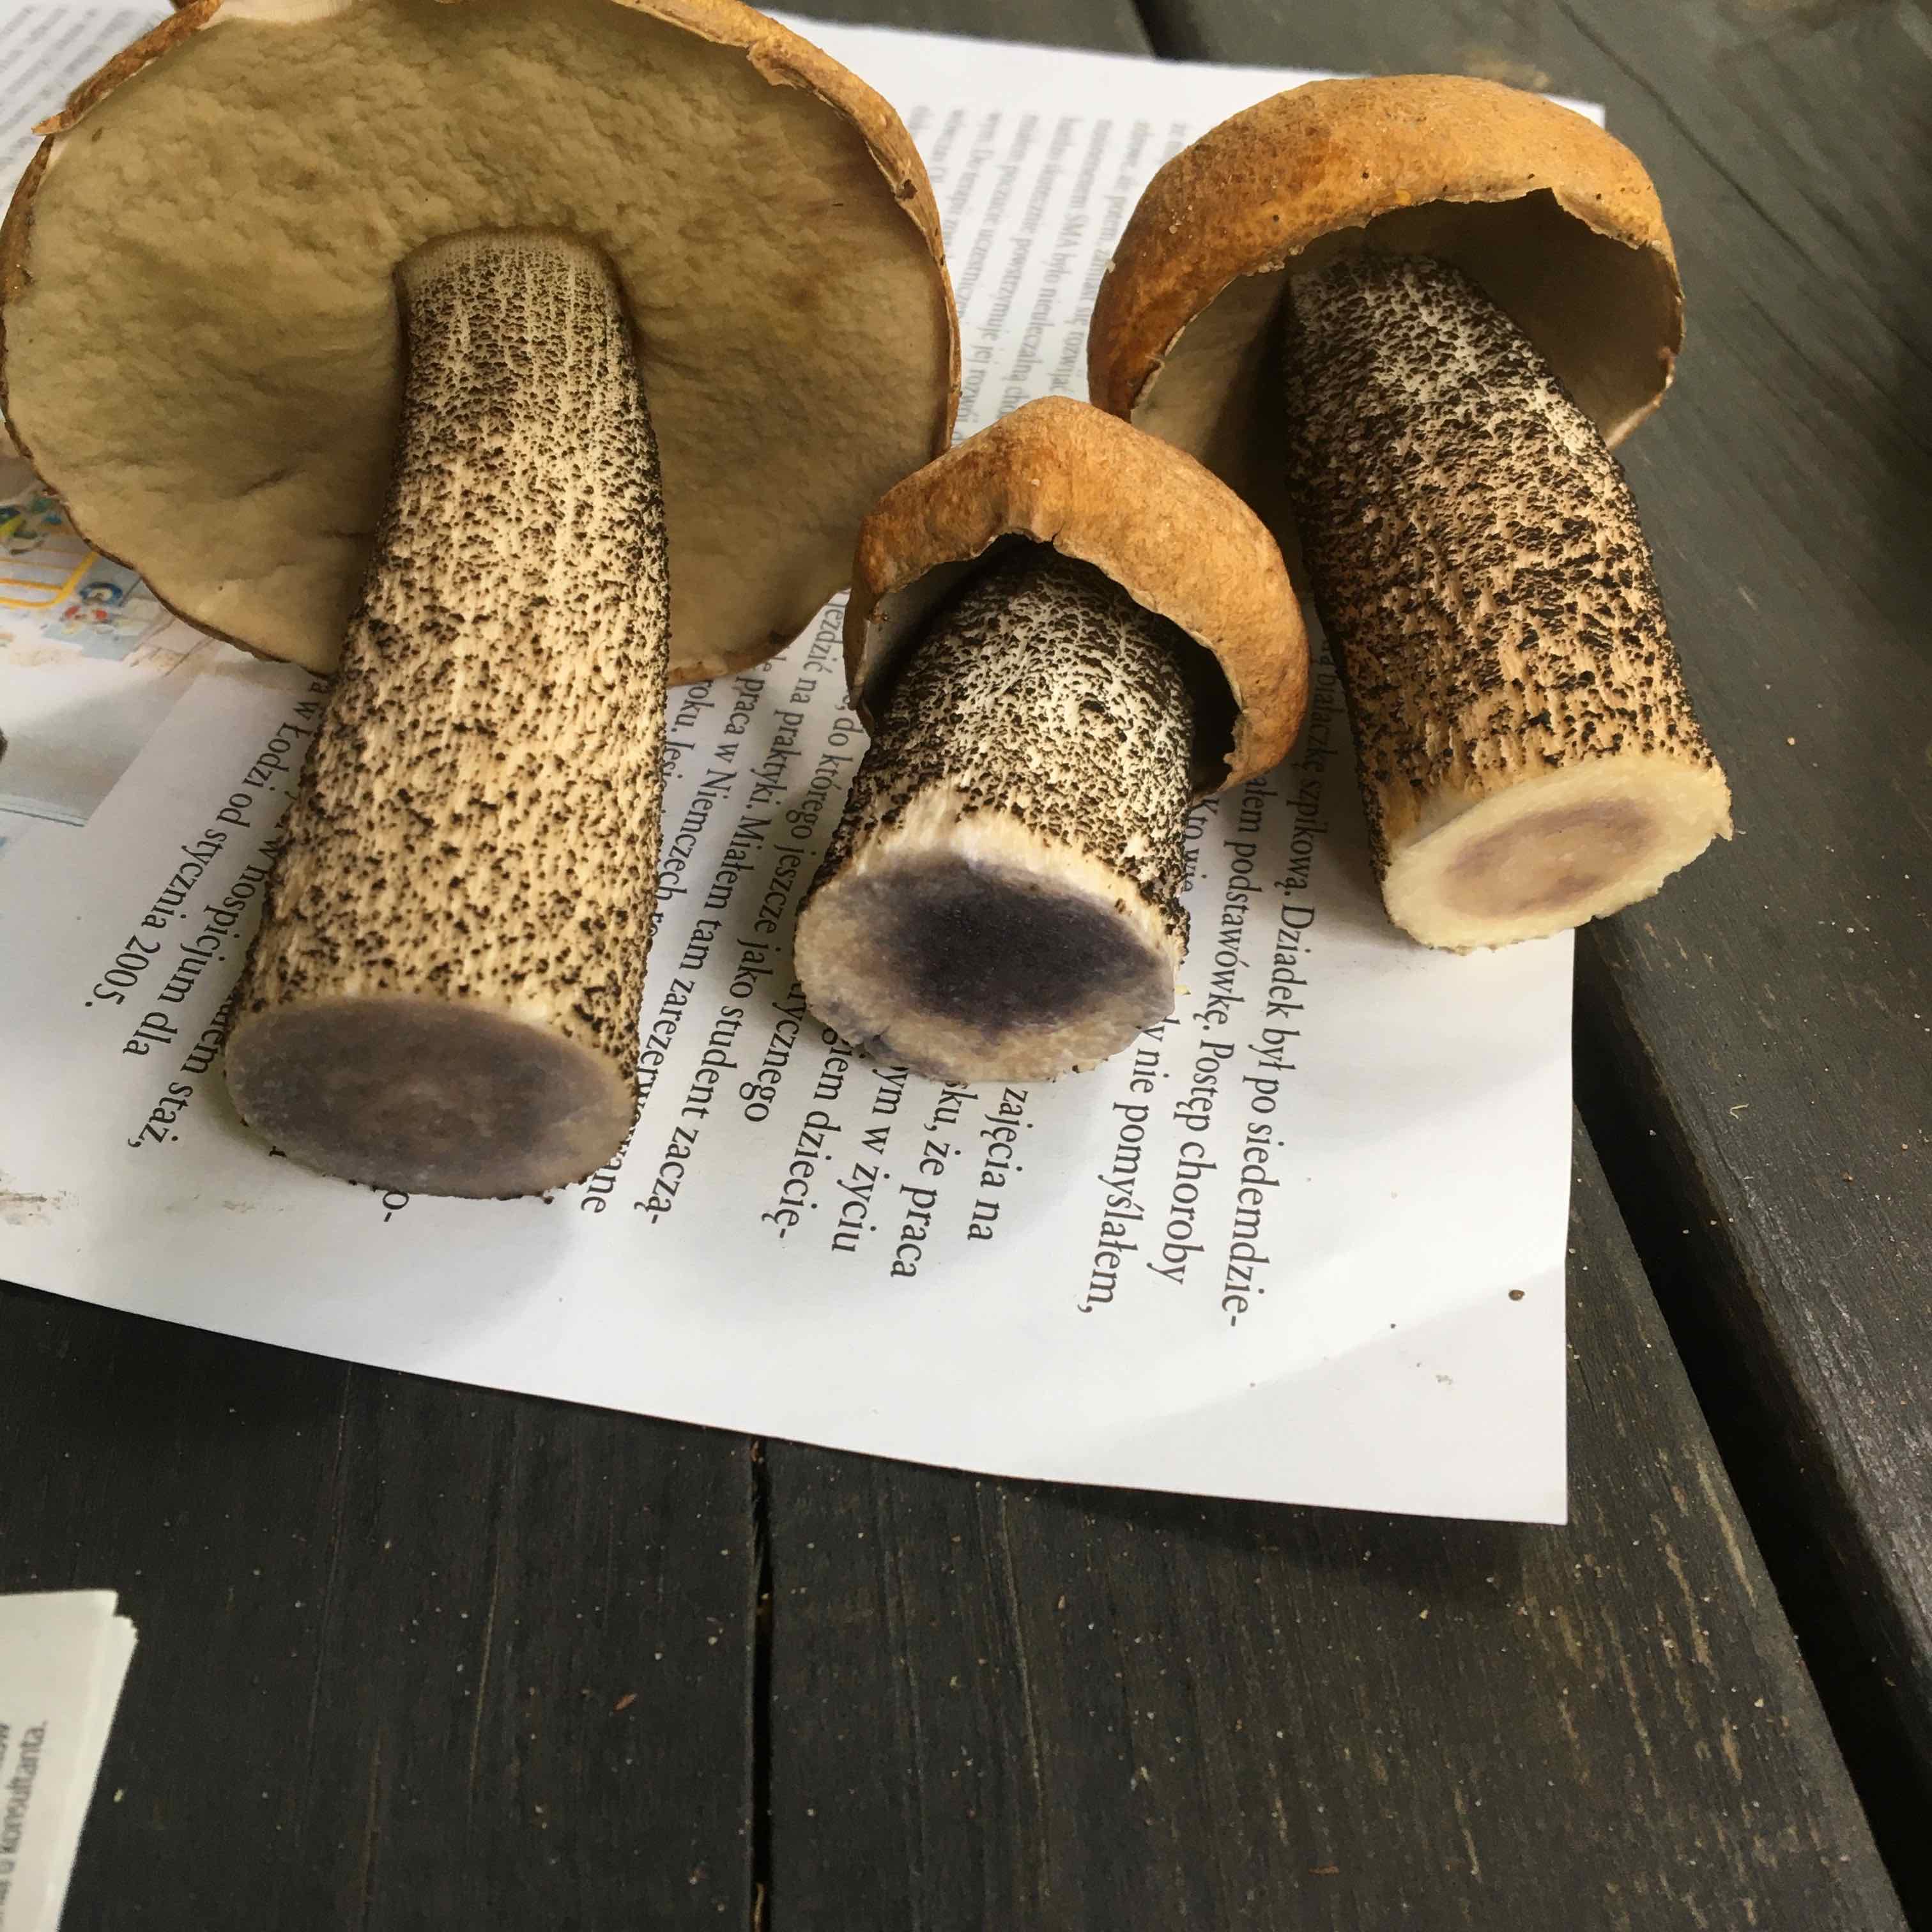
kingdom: Fungi
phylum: Basidiomycota
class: Agaricomycetes
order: Boletales
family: Boletaceae
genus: Leccinum
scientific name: Leccinum versipelle
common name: orange skælrørhat
